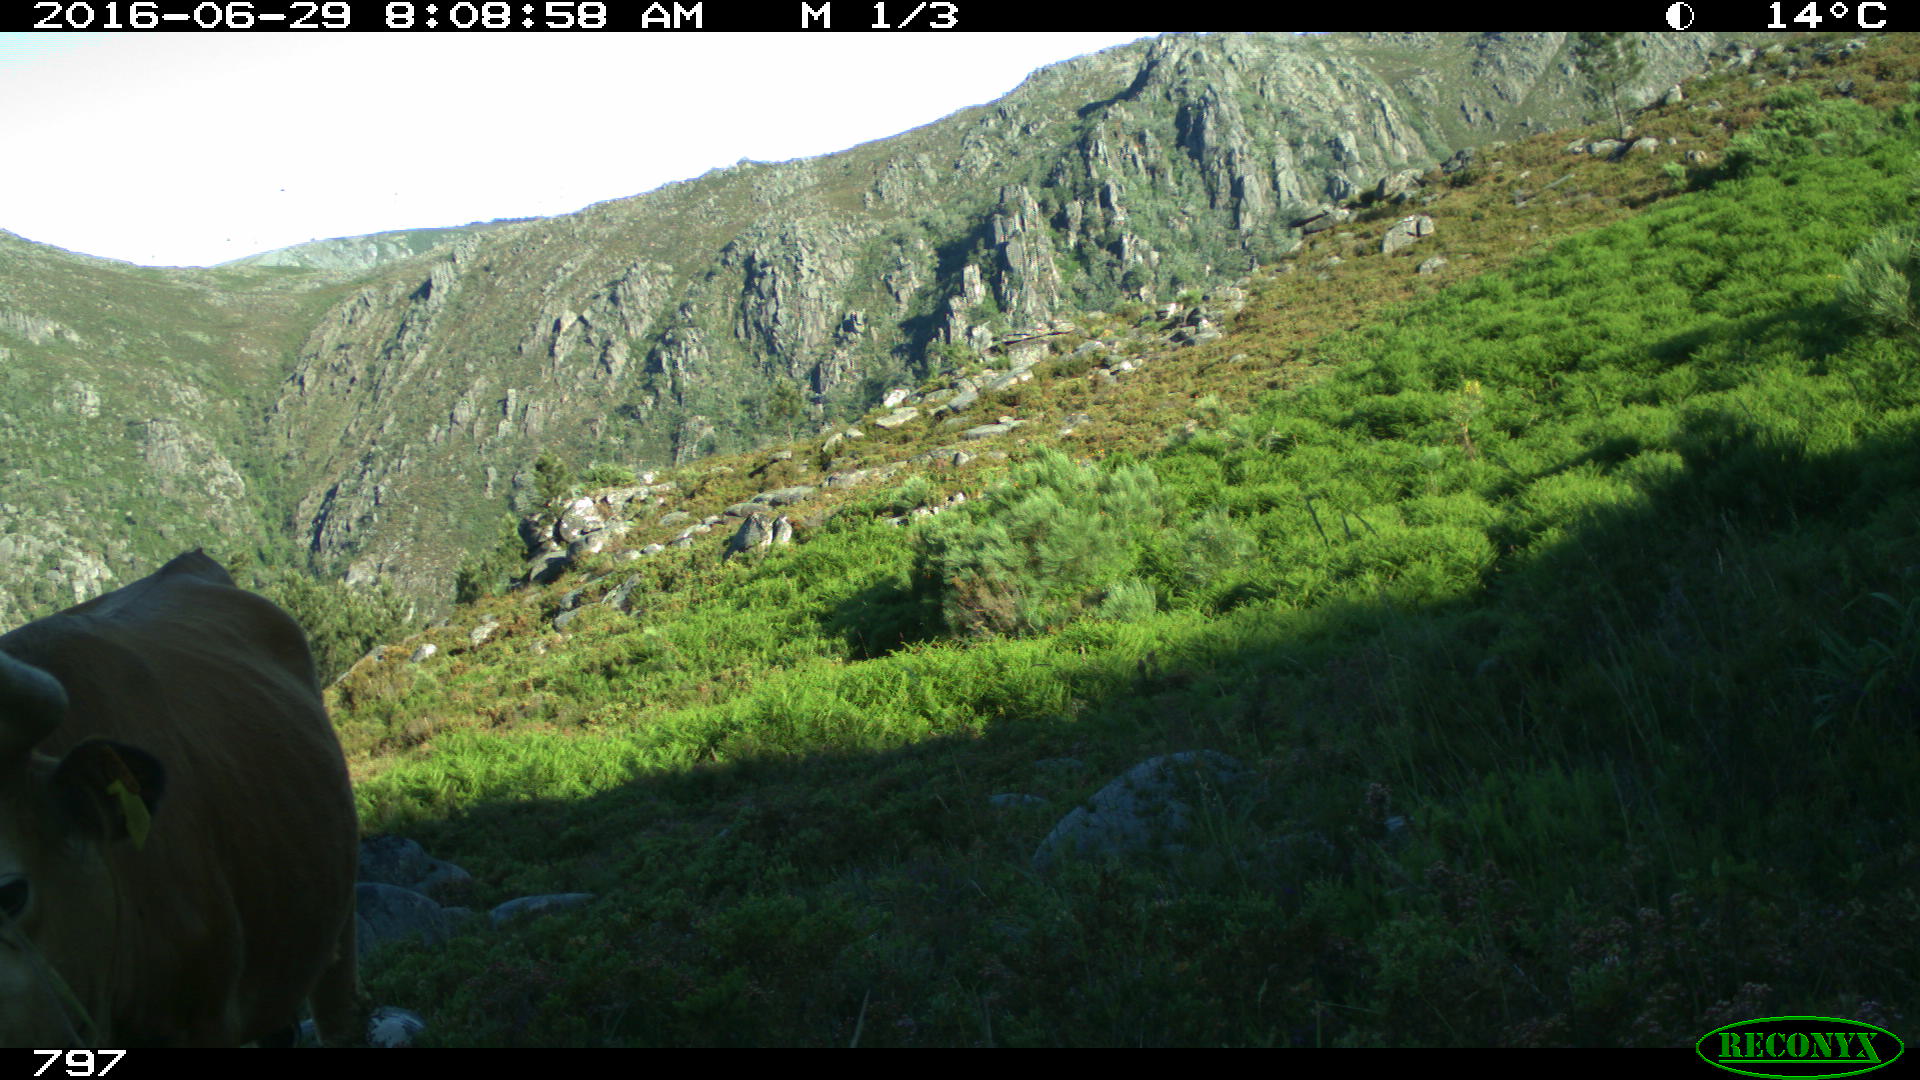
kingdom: Animalia
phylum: Chordata
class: Mammalia
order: Artiodactyla
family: Bovidae
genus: Bos
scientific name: Bos taurus
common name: Domesticated cattle
